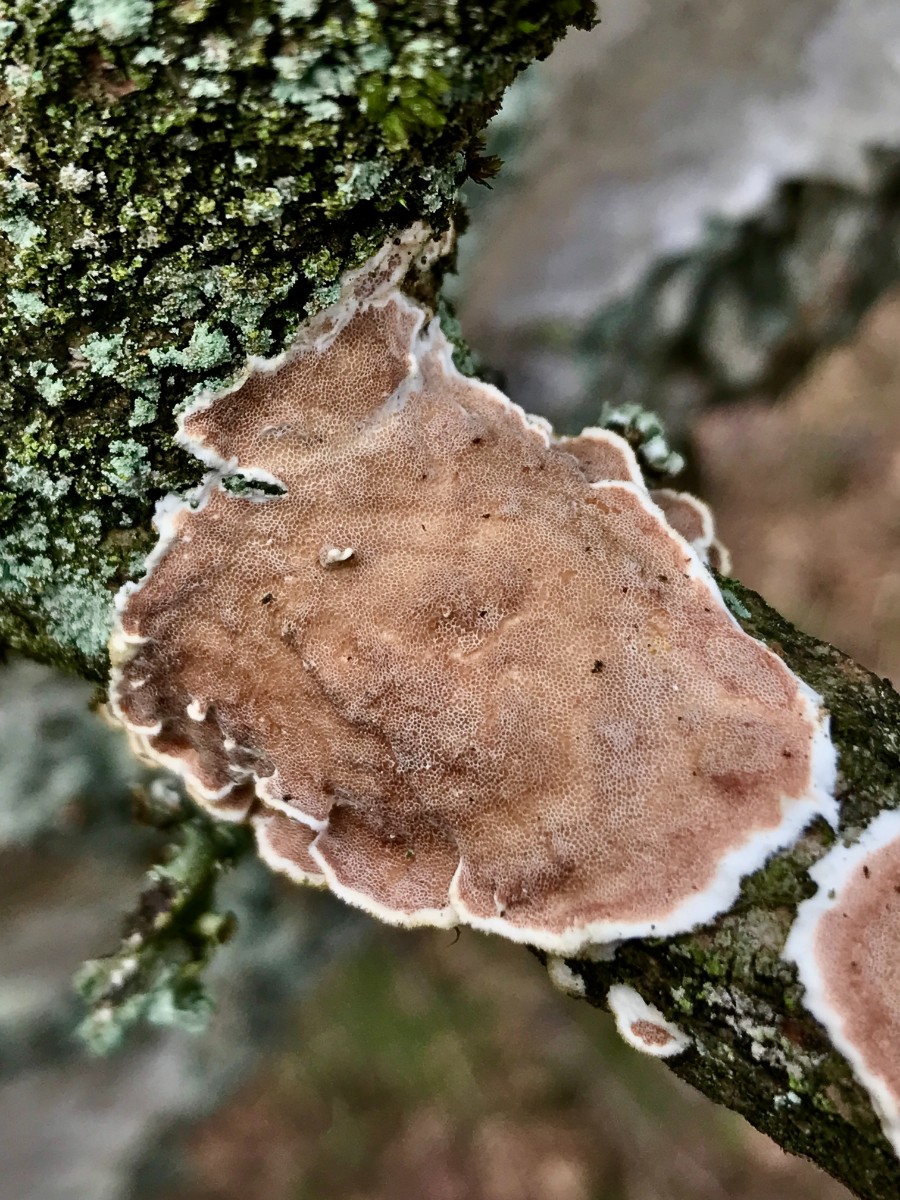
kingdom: Fungi
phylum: Basidiomycota
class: Agaricomycetes
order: Polyporales
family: Irpicaceae
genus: Vitreoporus
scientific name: Vitreoporus dichrous
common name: tofarvet foldporesvamp
